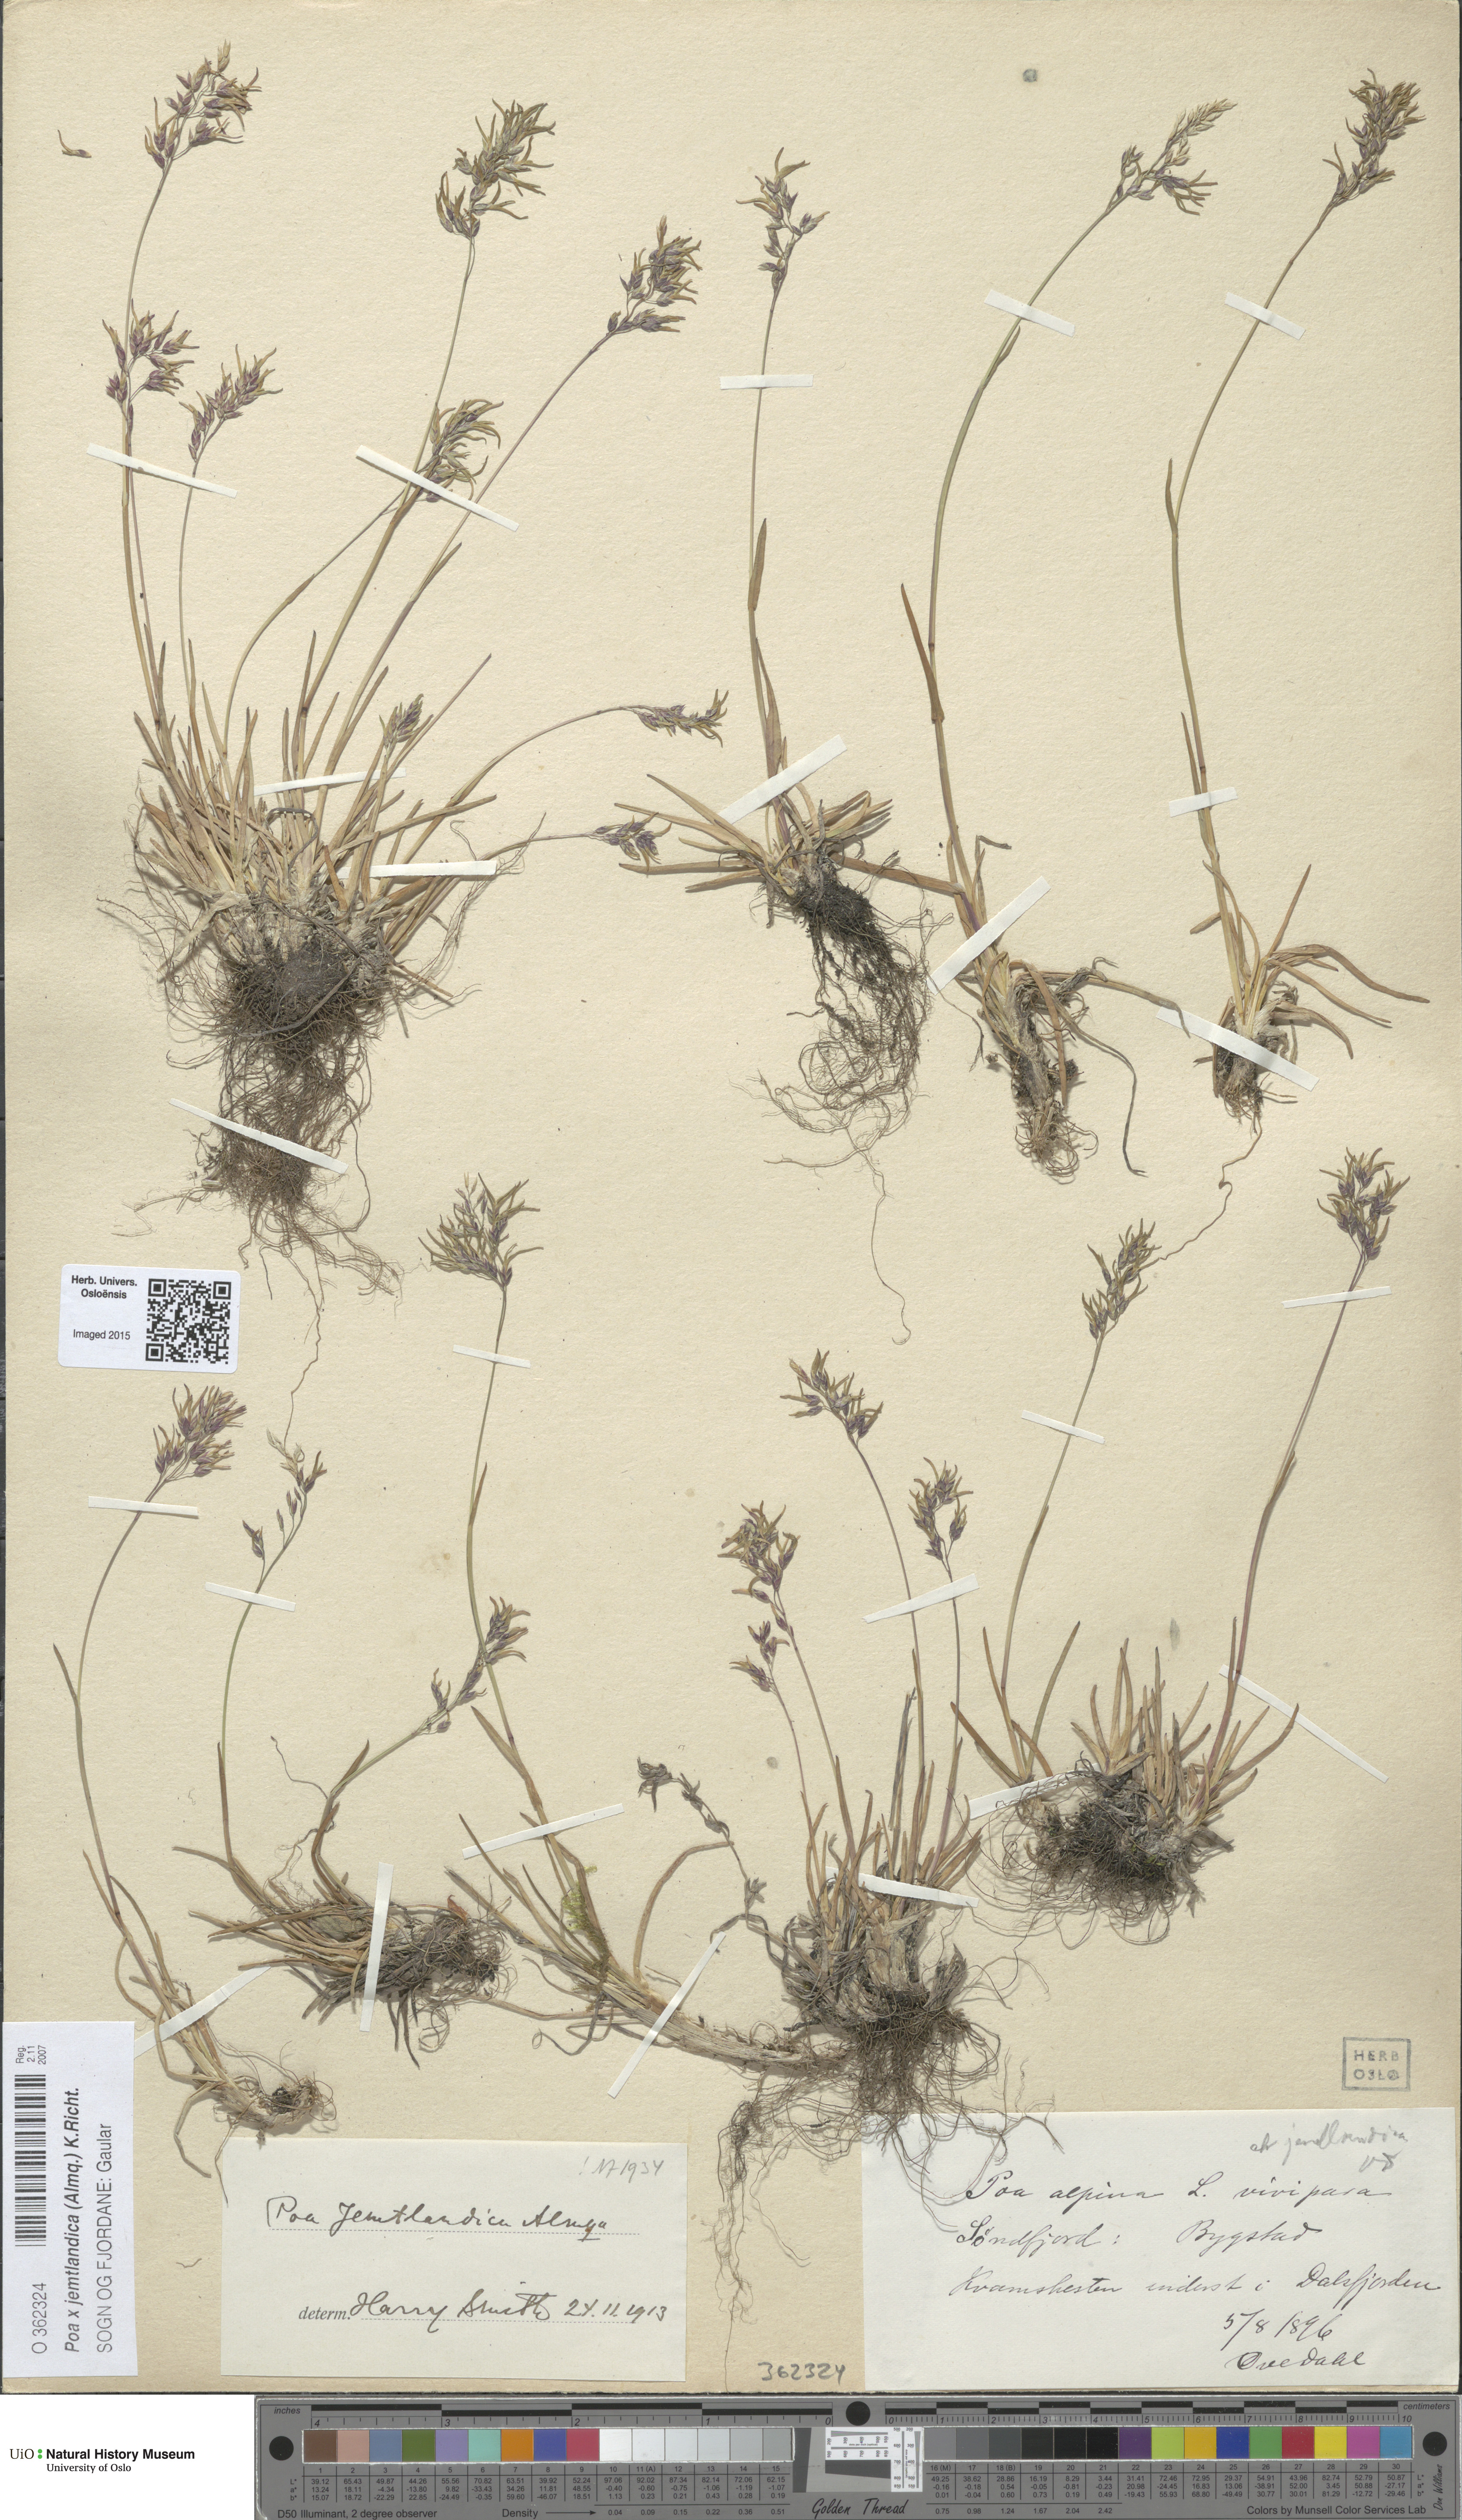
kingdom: Plantae
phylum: Tracheophyta
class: Liliopsida
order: Poales
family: Poaceae
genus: Poa
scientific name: Poa jemtlandica
